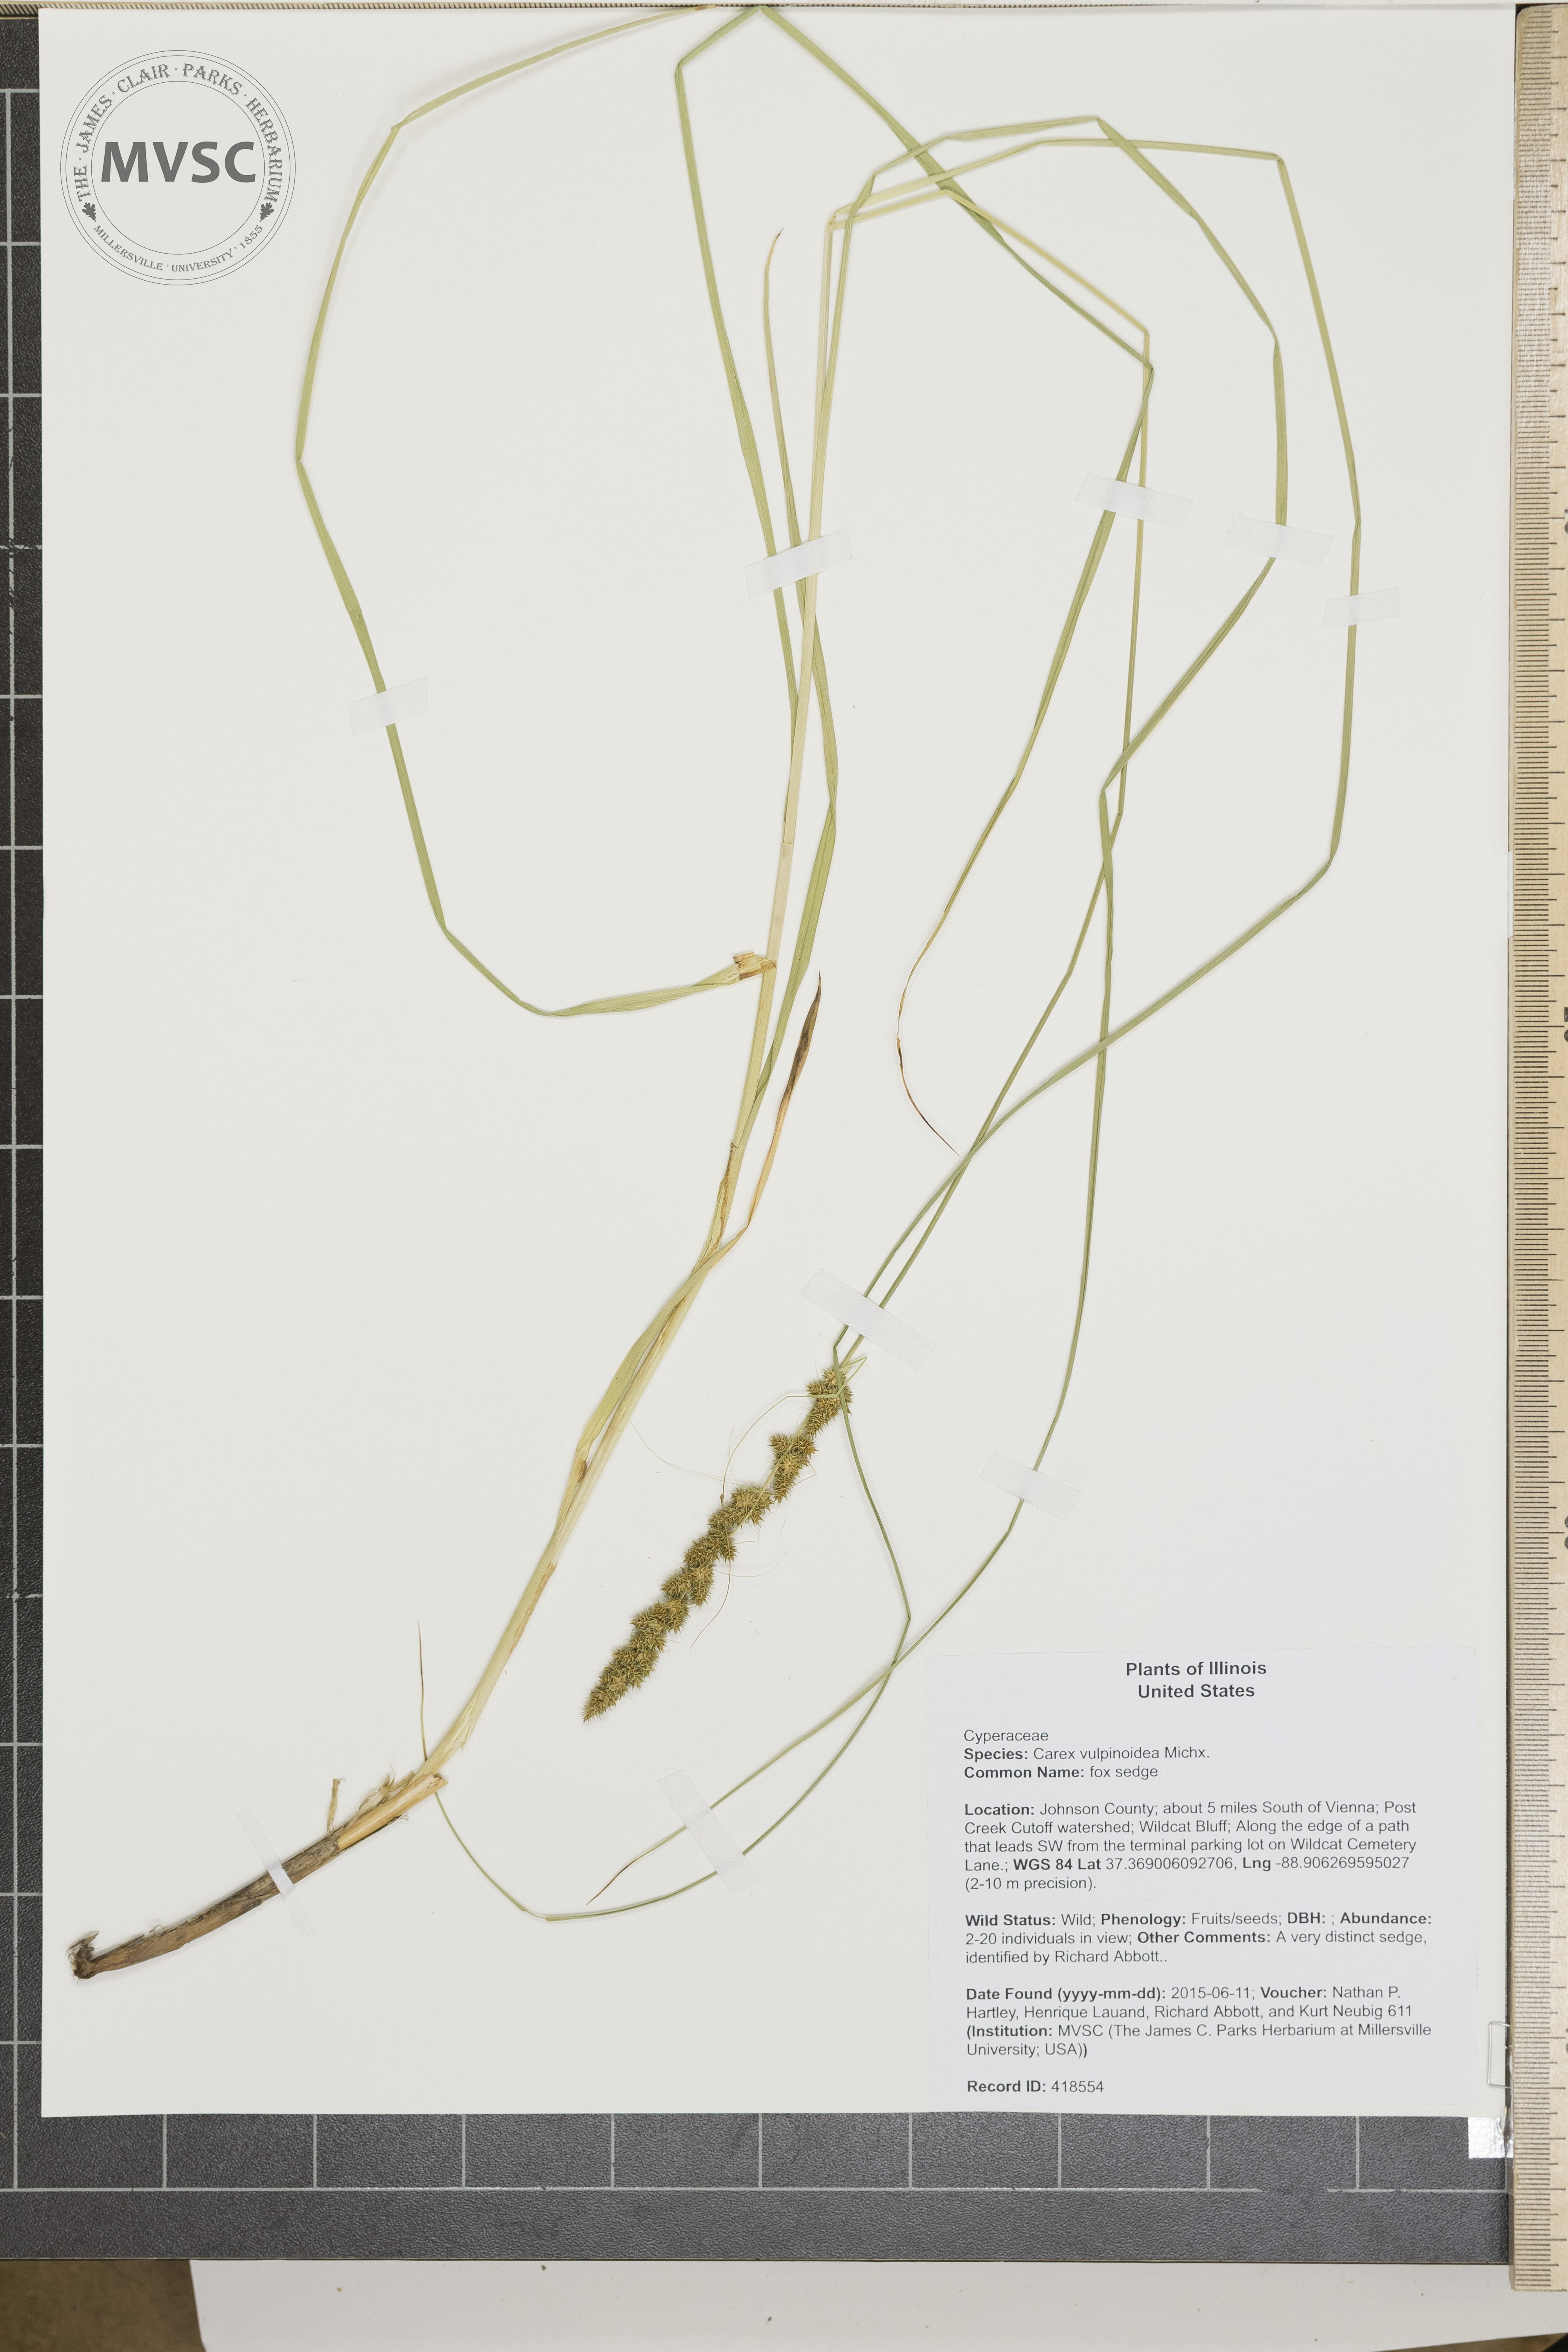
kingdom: Plantae
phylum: Tracheophyta
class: Liliopsida
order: Poales
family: Cyperaceae
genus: Carex
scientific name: Carex vulpinoidea
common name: fox sedge
